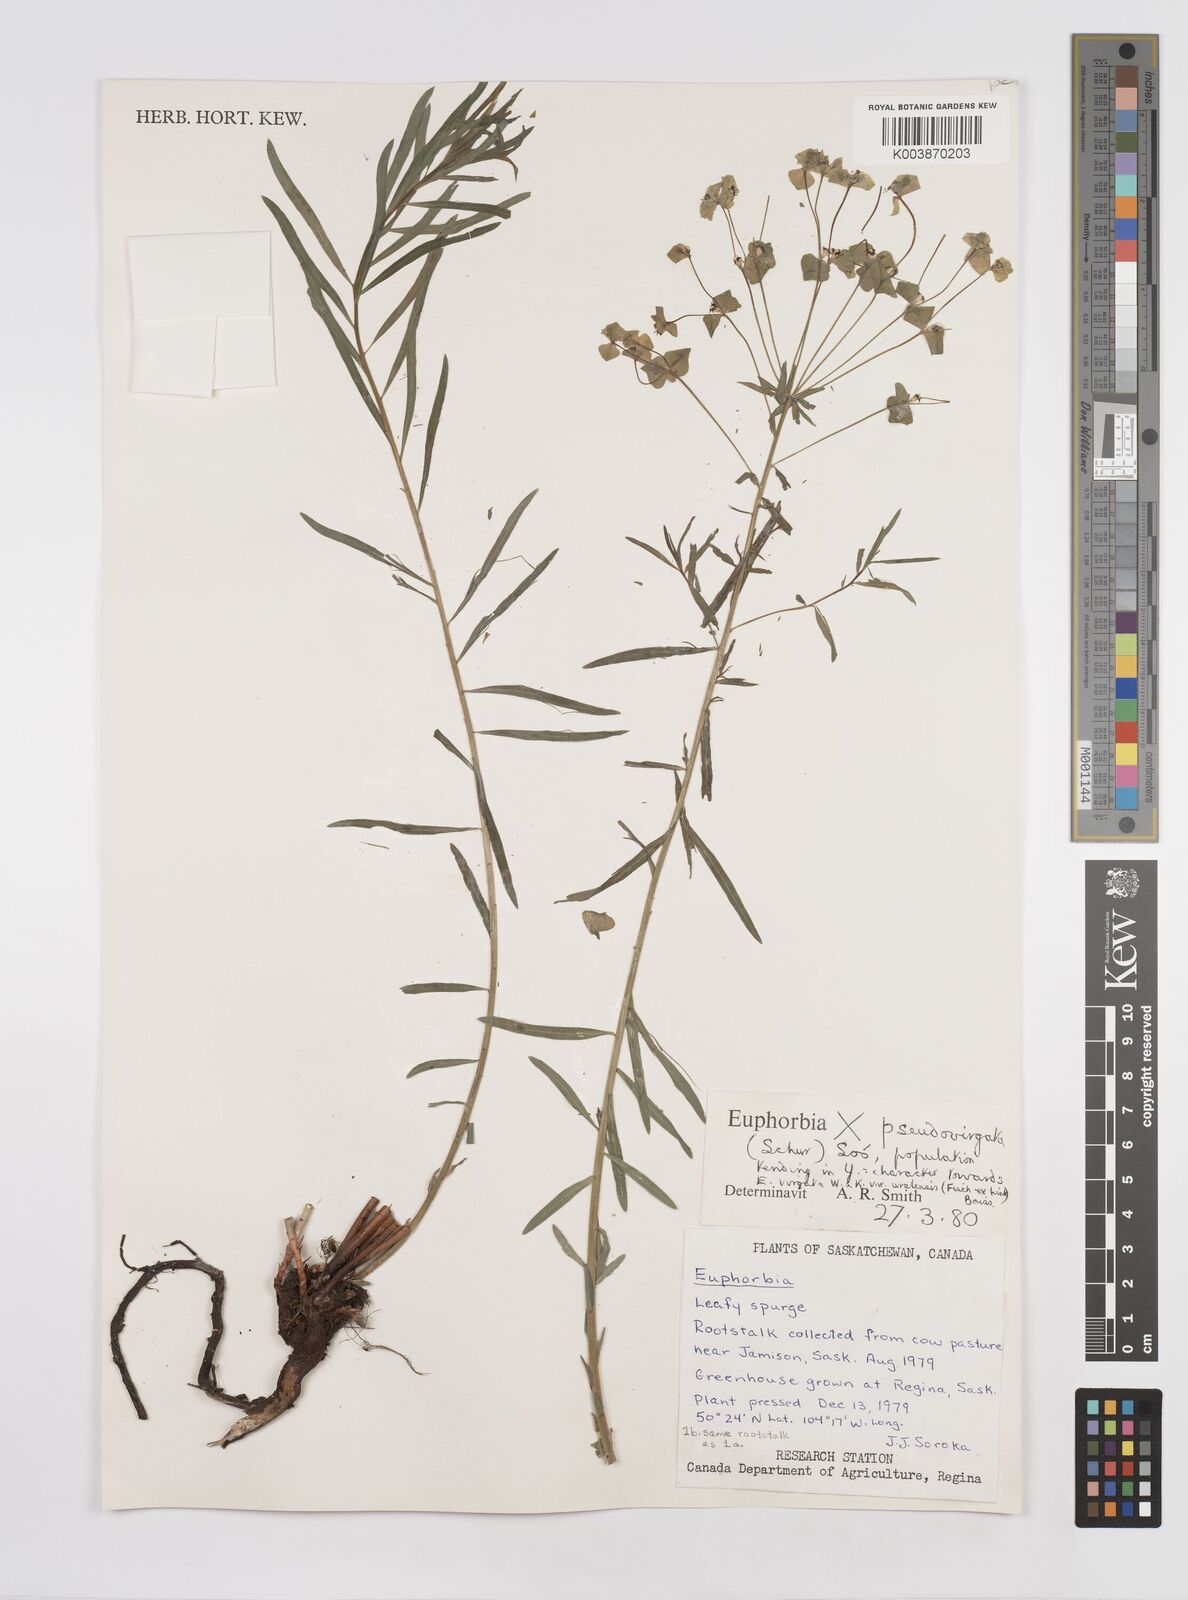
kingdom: Plantae
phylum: Tracheophyta
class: Magnoliopsida
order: Malpighiales
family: Euphorbiaceae
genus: Euphorbia
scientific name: Euphorbia virgata
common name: Leafy spurge
